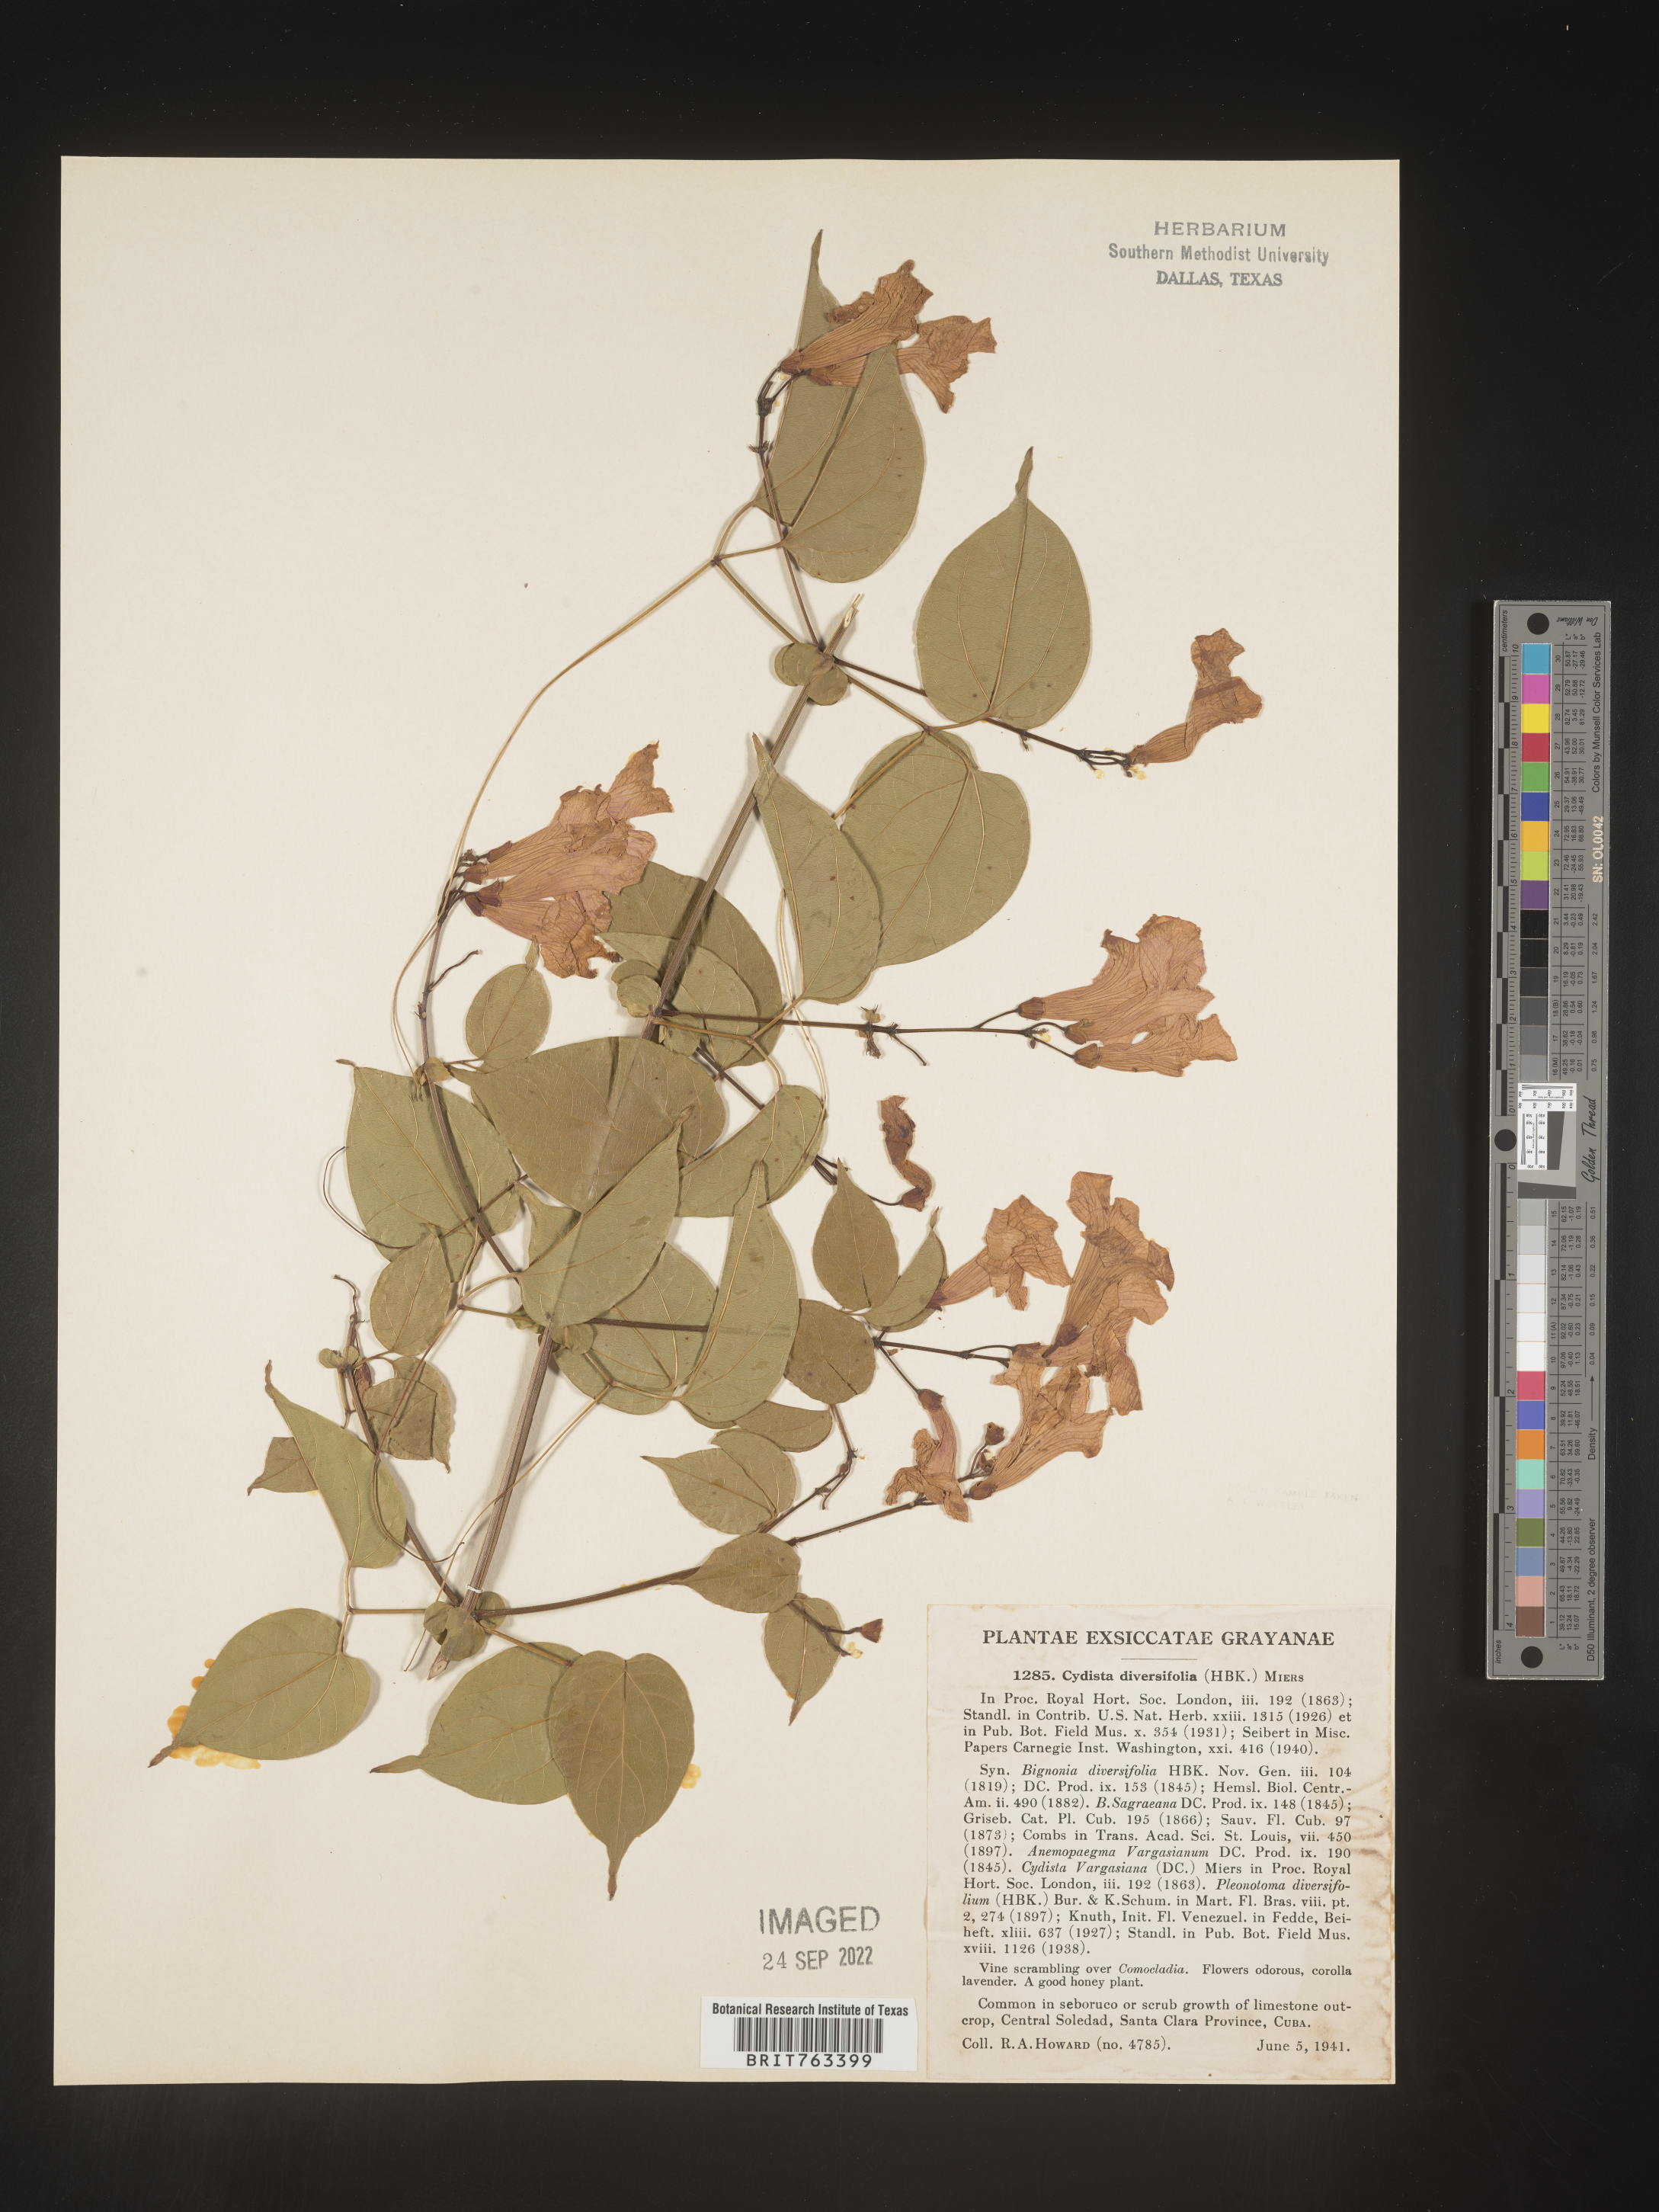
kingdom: Plantae
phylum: Tracheophyta
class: Magnoliopsida
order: Lamiales
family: Bignoniaceae
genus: Bignonia
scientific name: Bignonia
